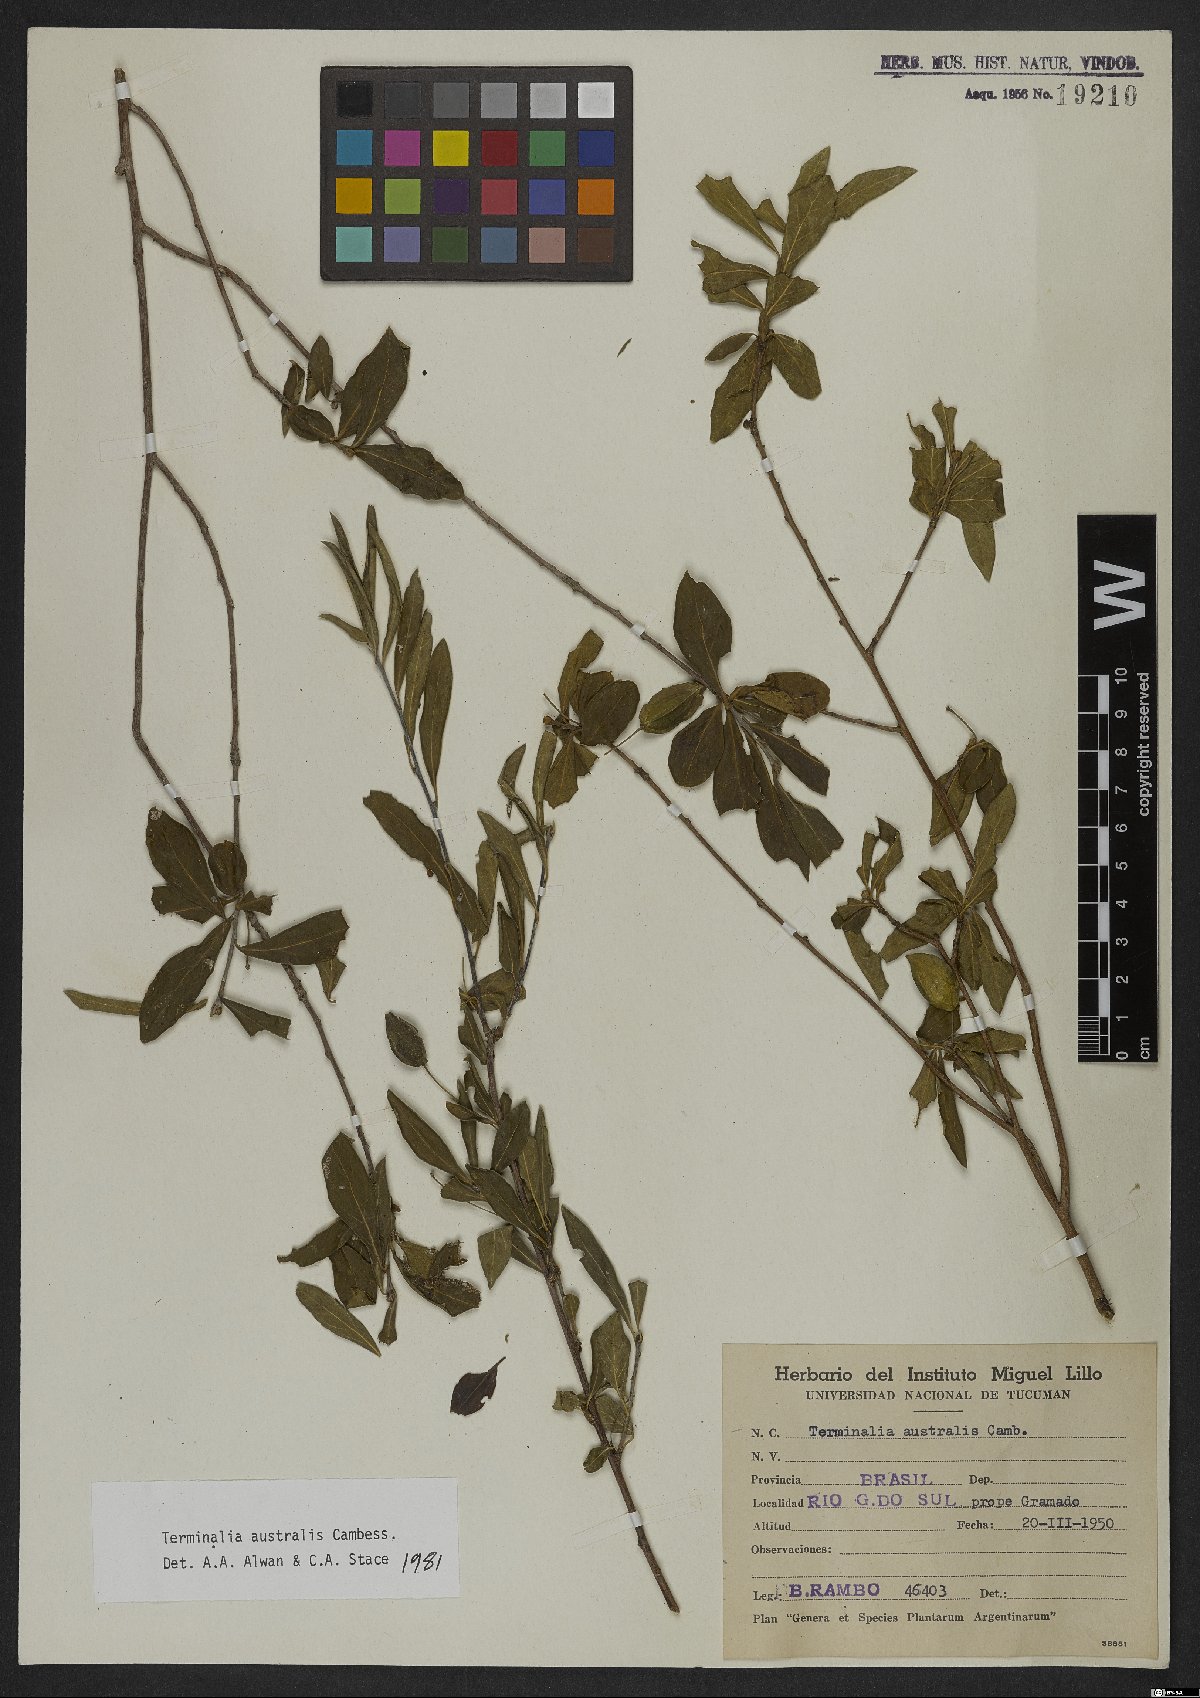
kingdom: Plantae
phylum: Tracheophyta
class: Magnoliopsida
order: Myrtales
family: Combretaceae
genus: Terminalia
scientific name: Terminalia australis
